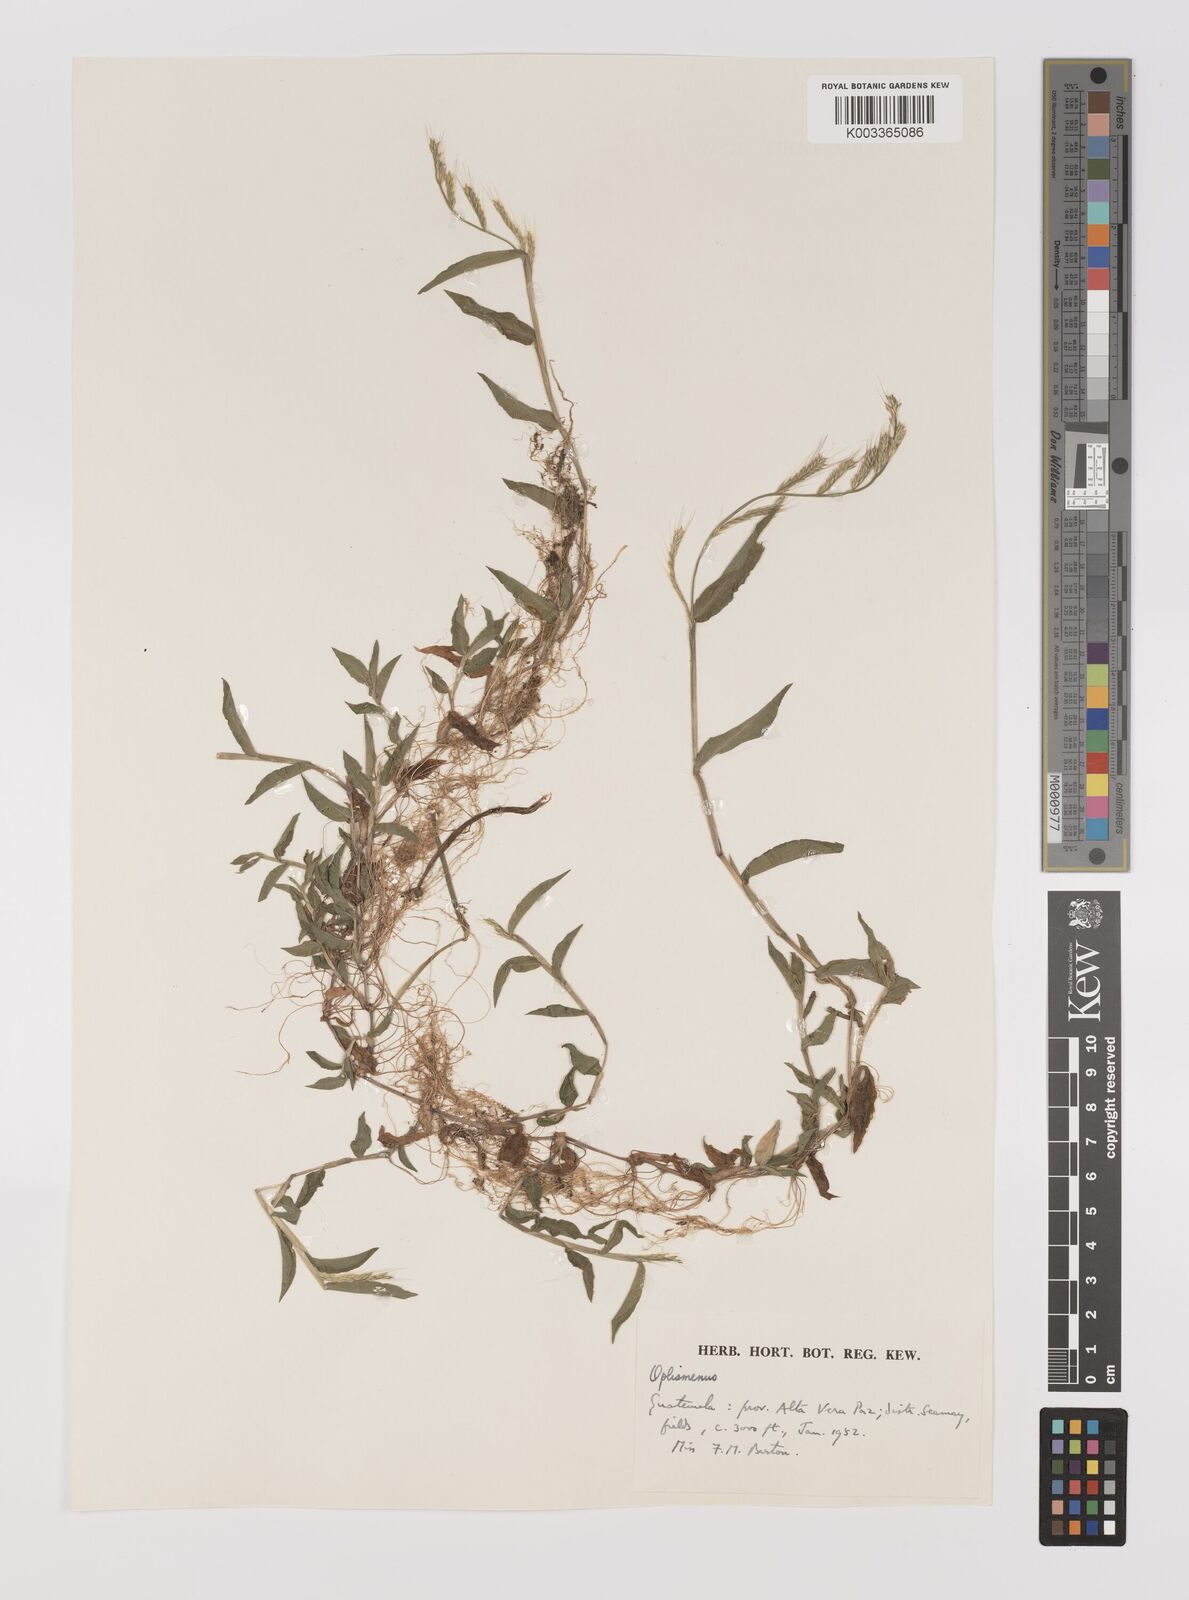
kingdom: Plantae
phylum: Tracheophyta
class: Liliopsida
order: Poales
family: Poaceae
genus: Oplismenus
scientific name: Oplismenus burmanni
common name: Burmann's basketgrass
